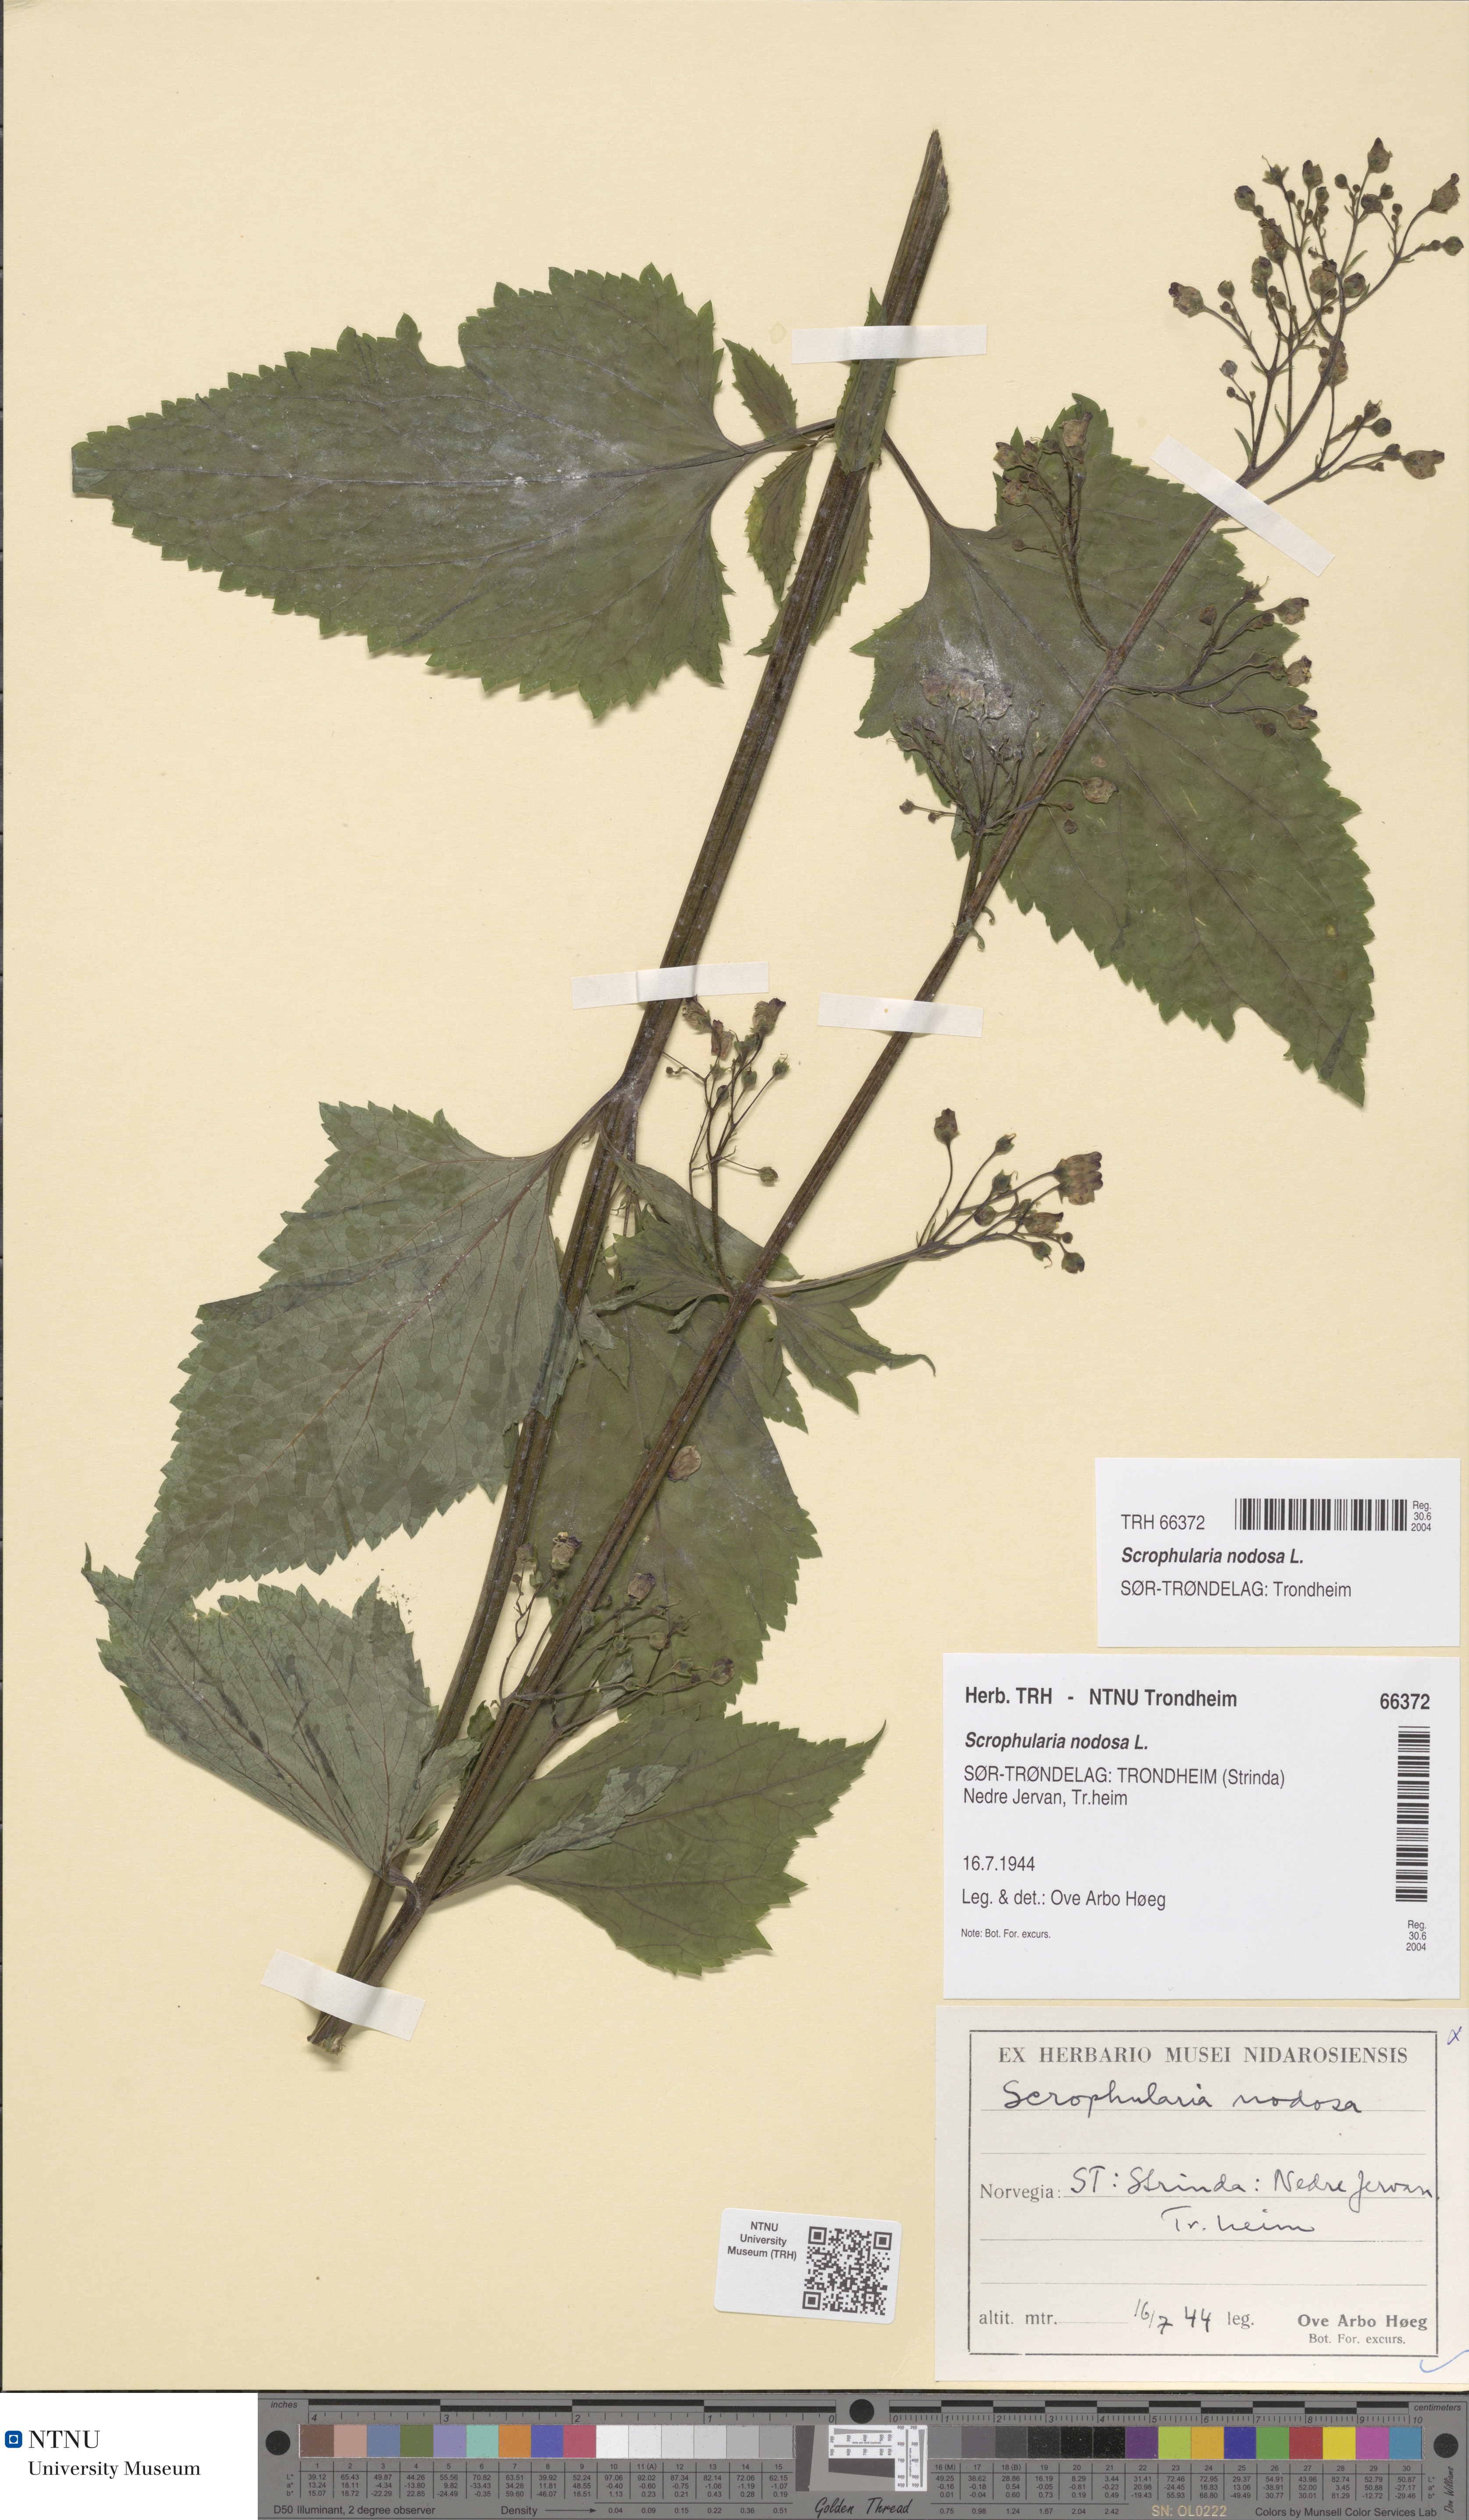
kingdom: Plantae
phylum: Tracheophyta
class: Magnoliopsida
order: Lamiales
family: Scrophulariaceae
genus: Scrophularia
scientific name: Scrophularia nodosa
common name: Common figwort
